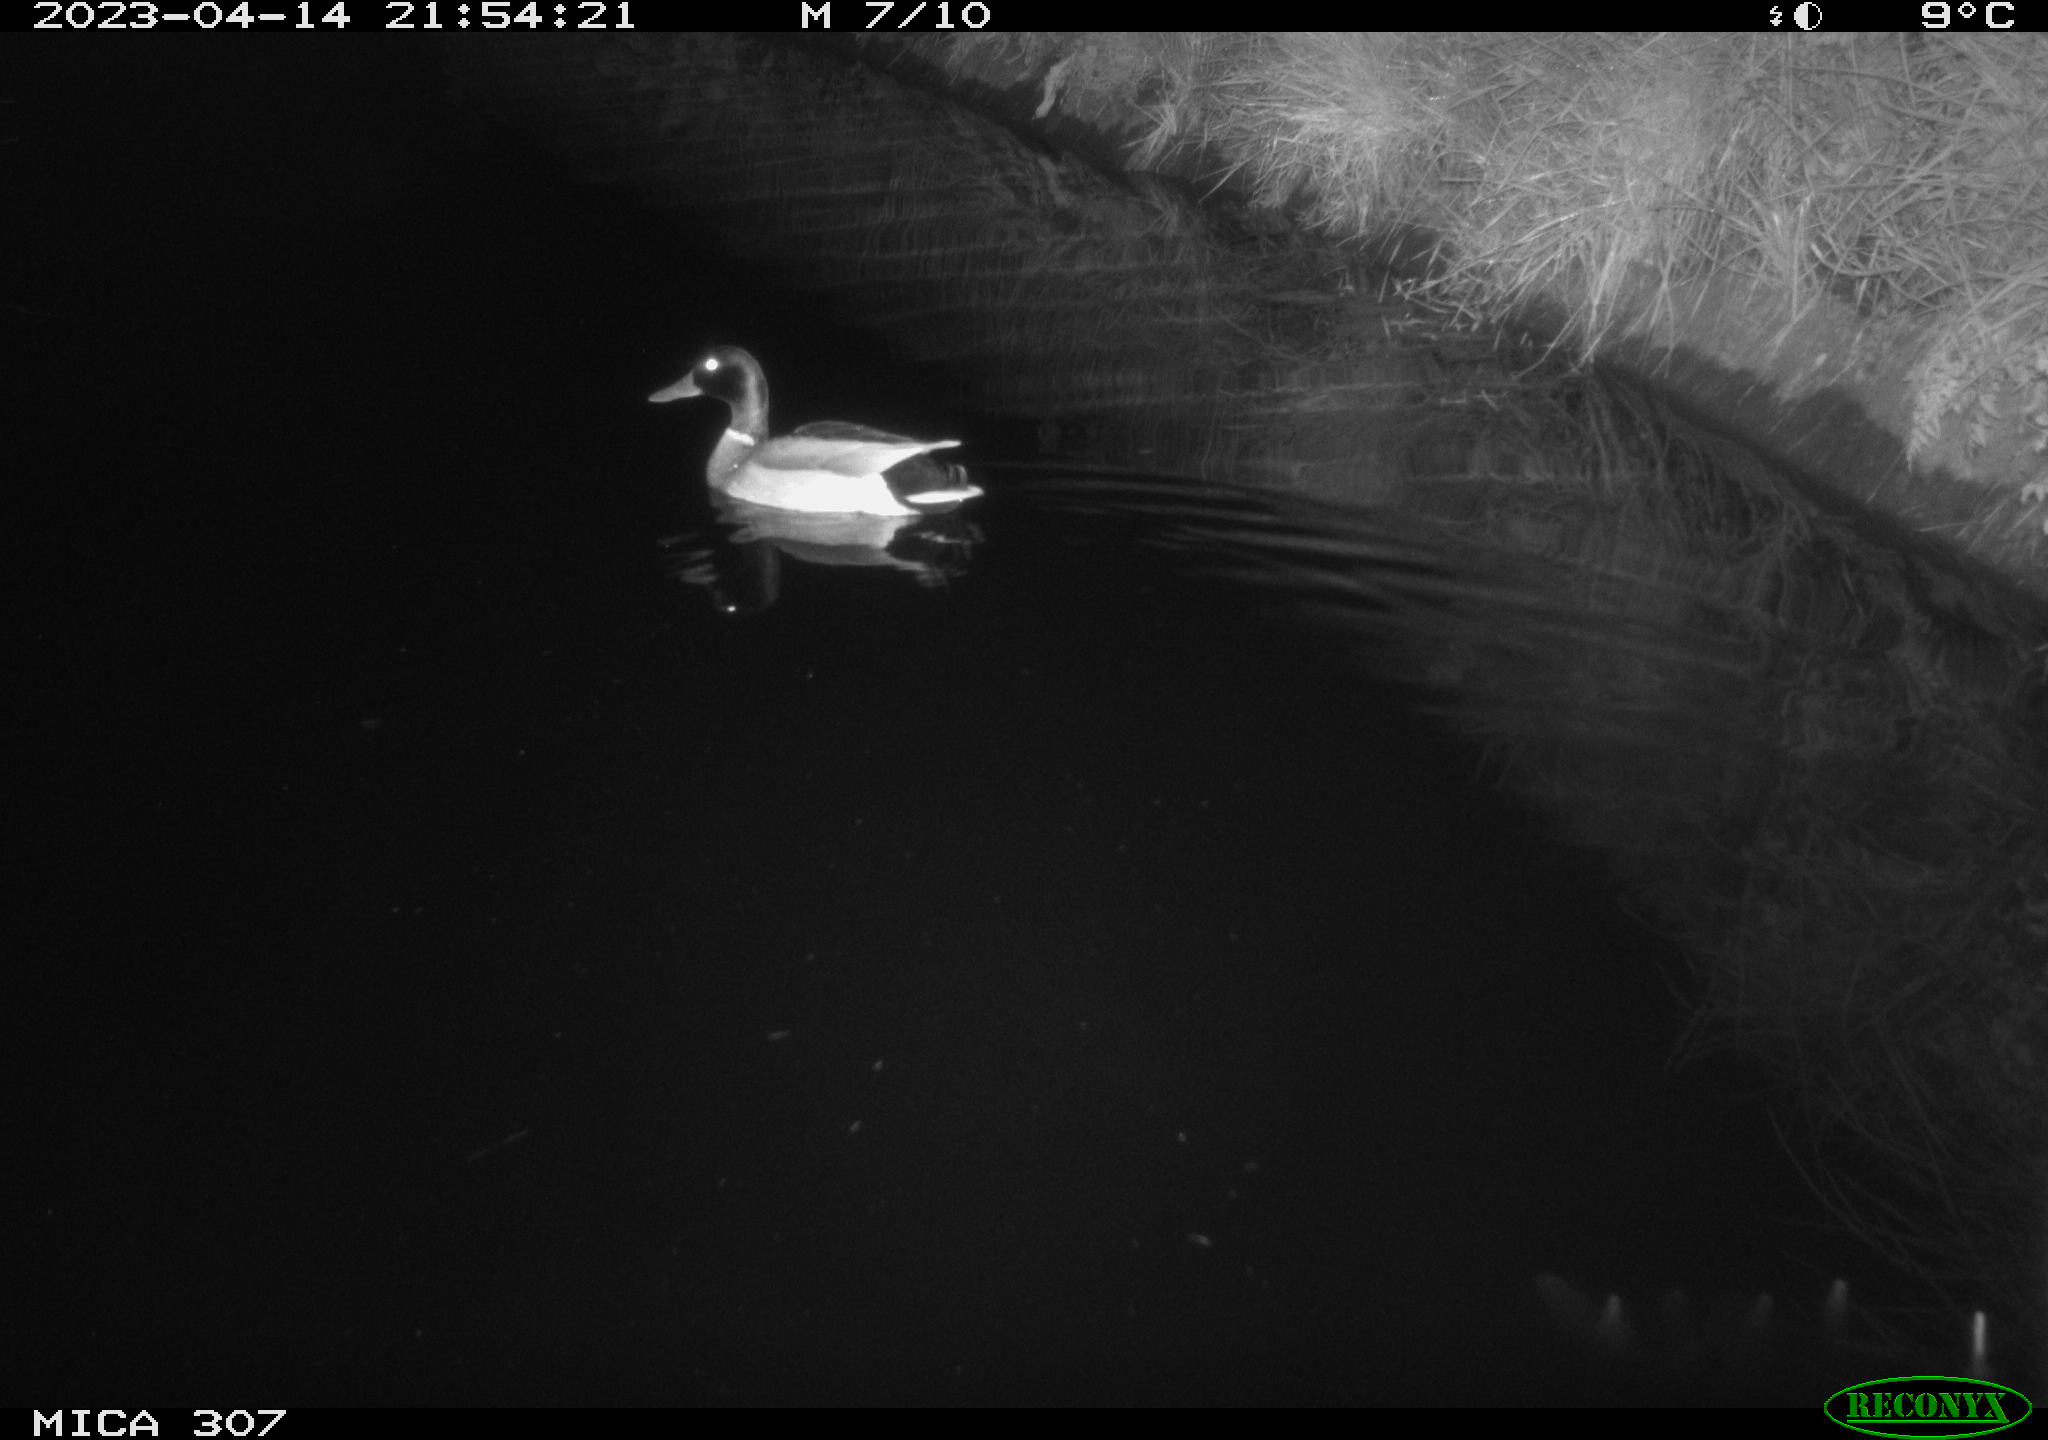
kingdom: Animalia
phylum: Chordata
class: Aves
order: Anseriformes
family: Anatidae
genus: Anas
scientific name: Anas
